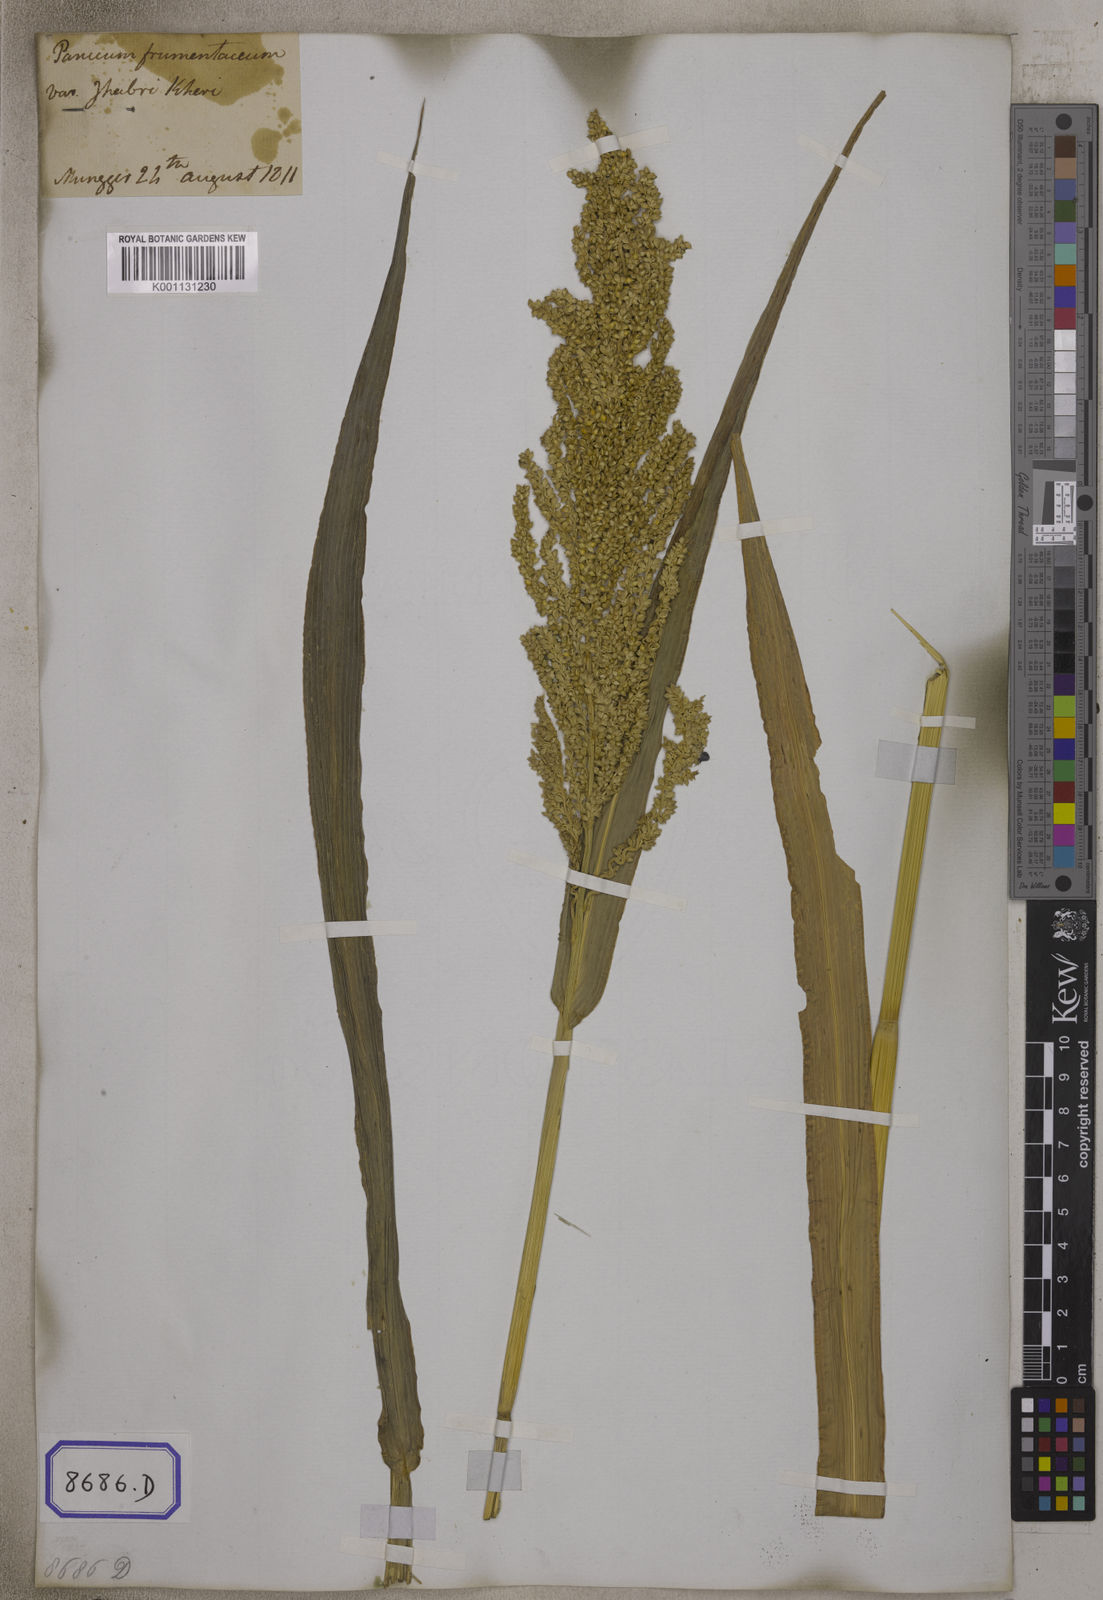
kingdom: Plantae
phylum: Tracheophyta
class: Liliopsida
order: Poales
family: Poaceae
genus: Panicum
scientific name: Panicum
